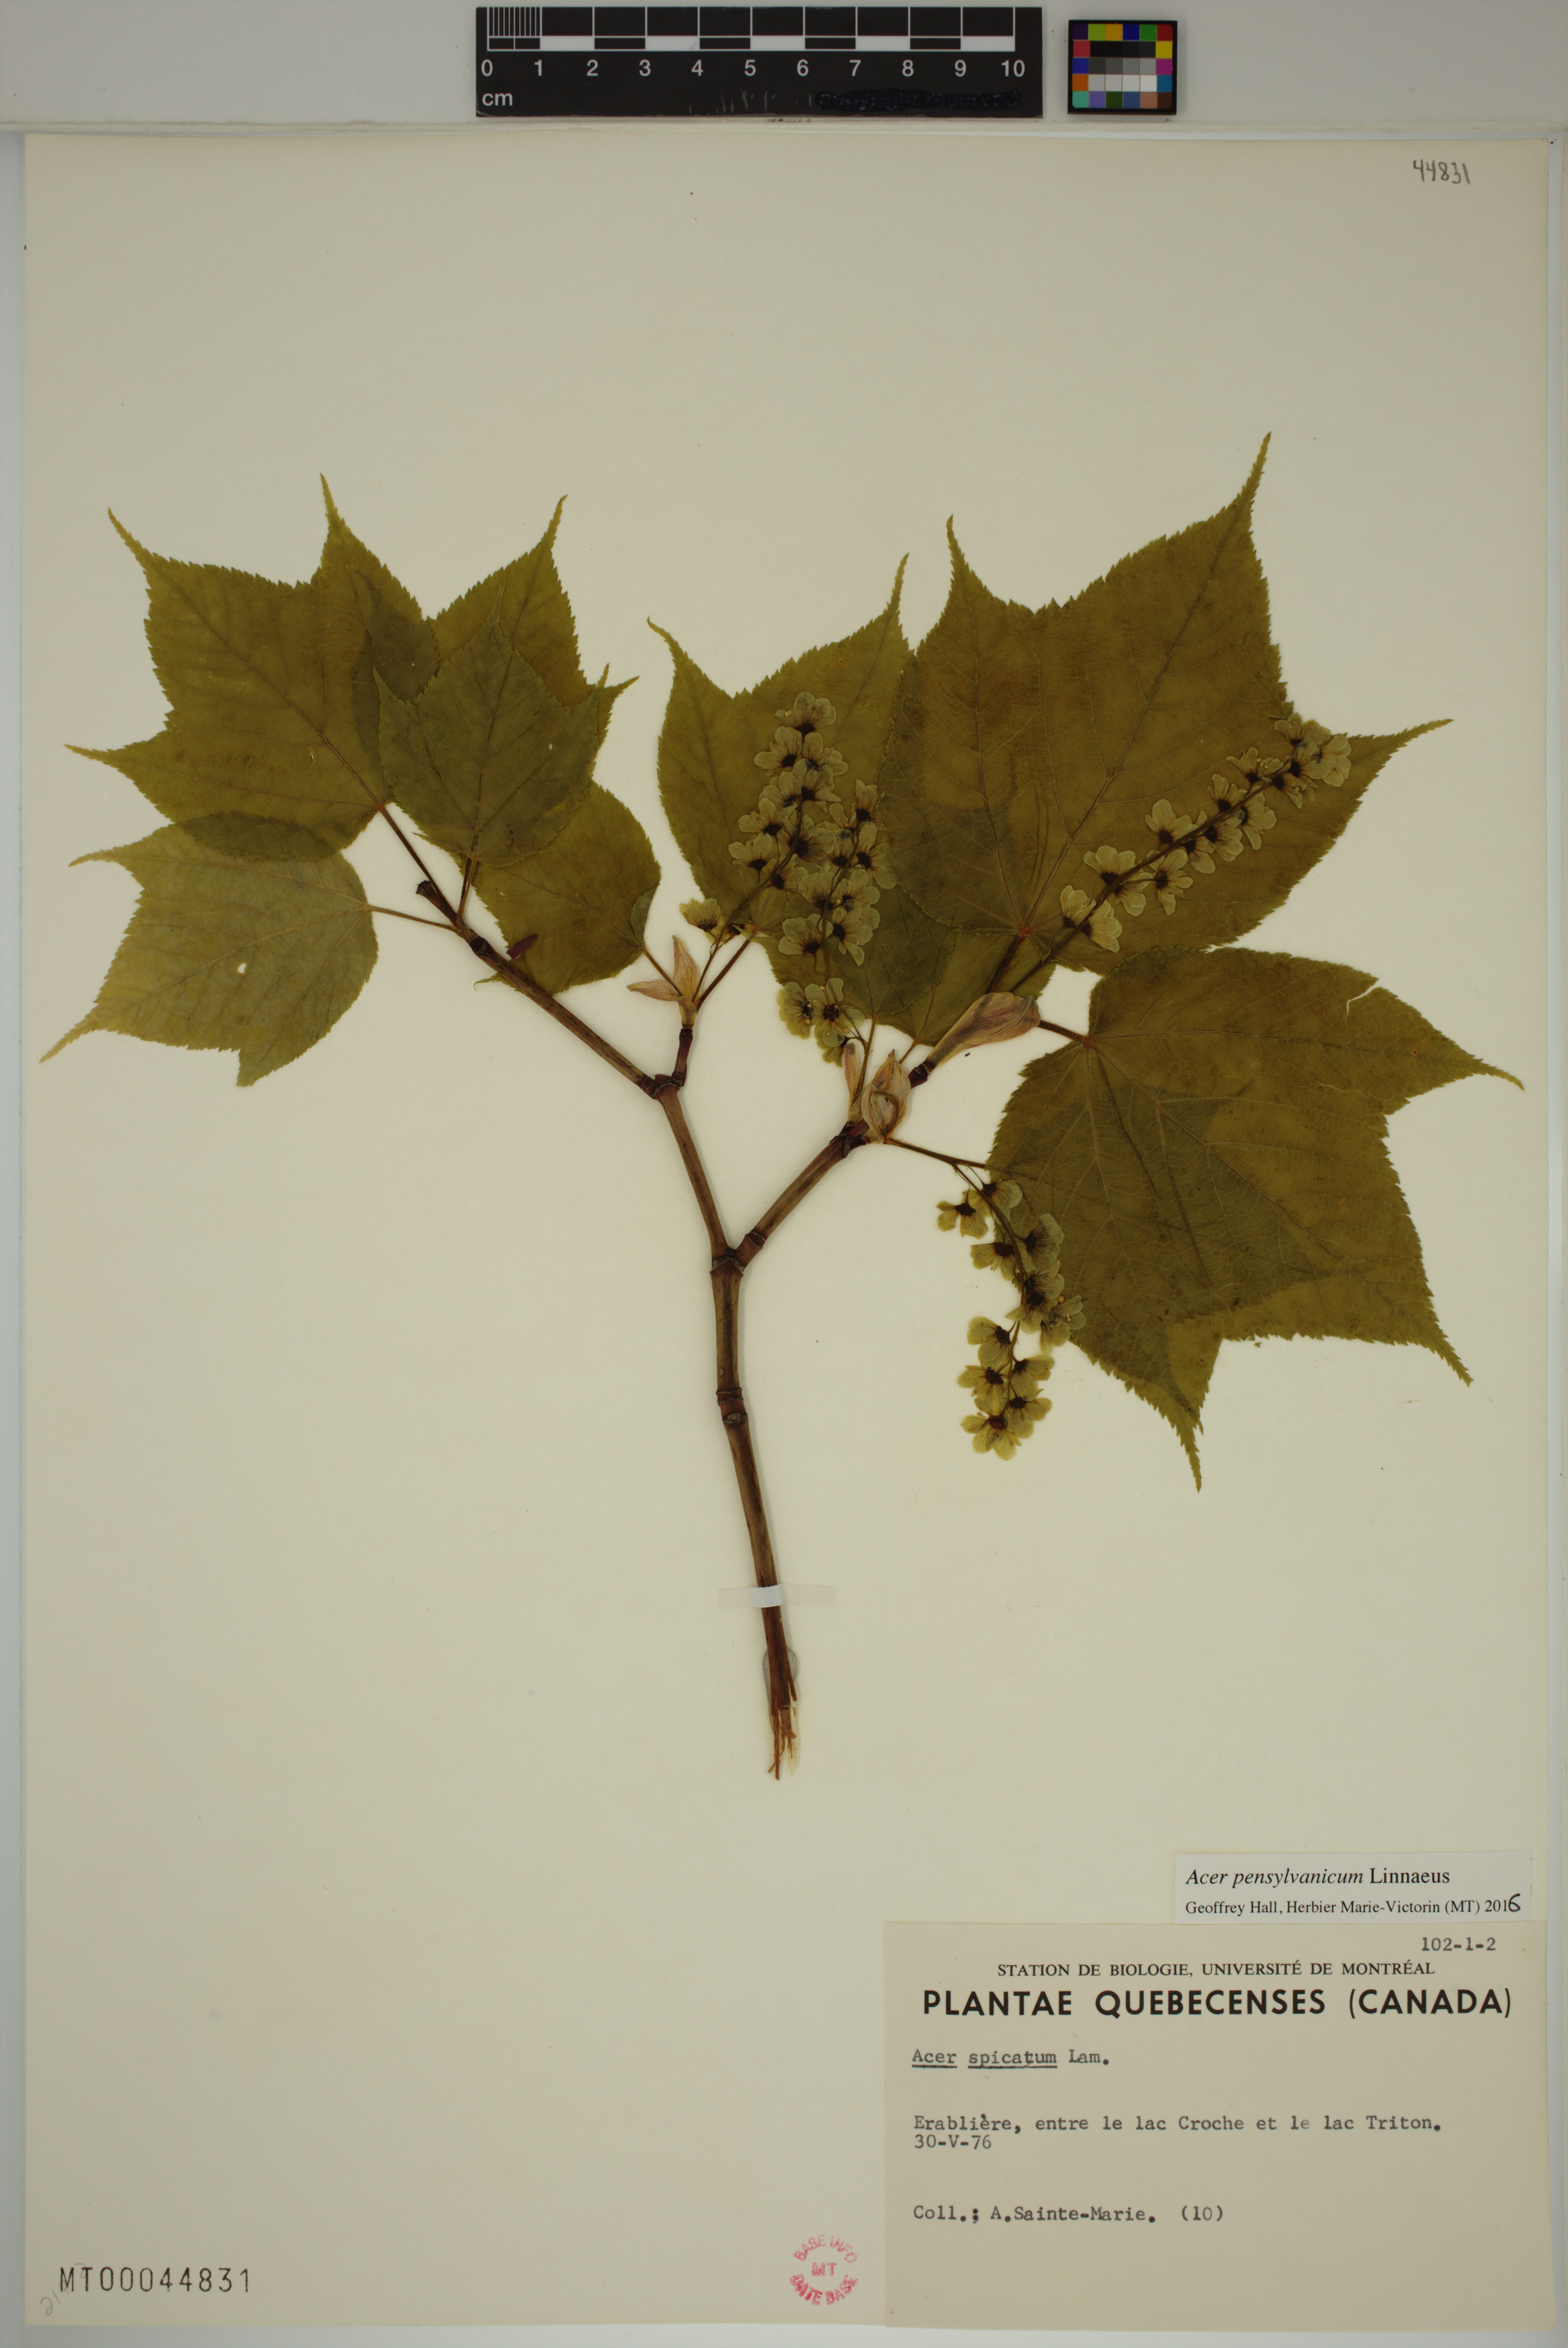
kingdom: Plantae
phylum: Tracheophyta
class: Magnoliopsida
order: Sapindales
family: Sapindaceae
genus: Acer
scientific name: Acer pensylvanicum
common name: Moosewood
